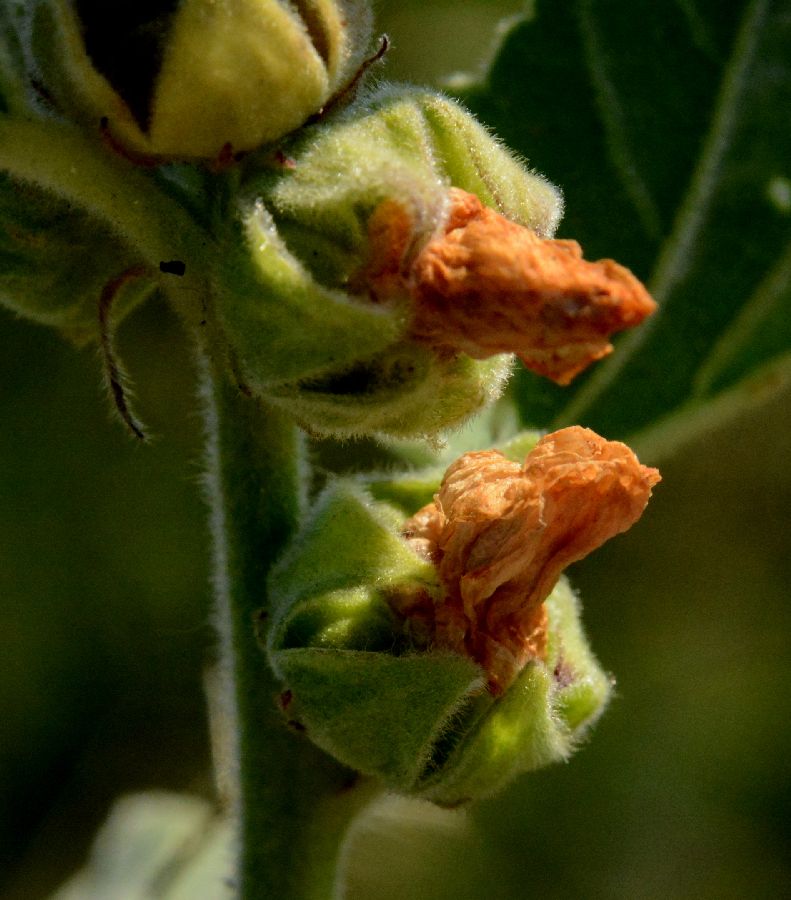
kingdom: Plantae
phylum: Tracheophyta
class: Magnoliopsida
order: Malvales
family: Malvaceae
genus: Althaea
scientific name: Althaea officinalis
